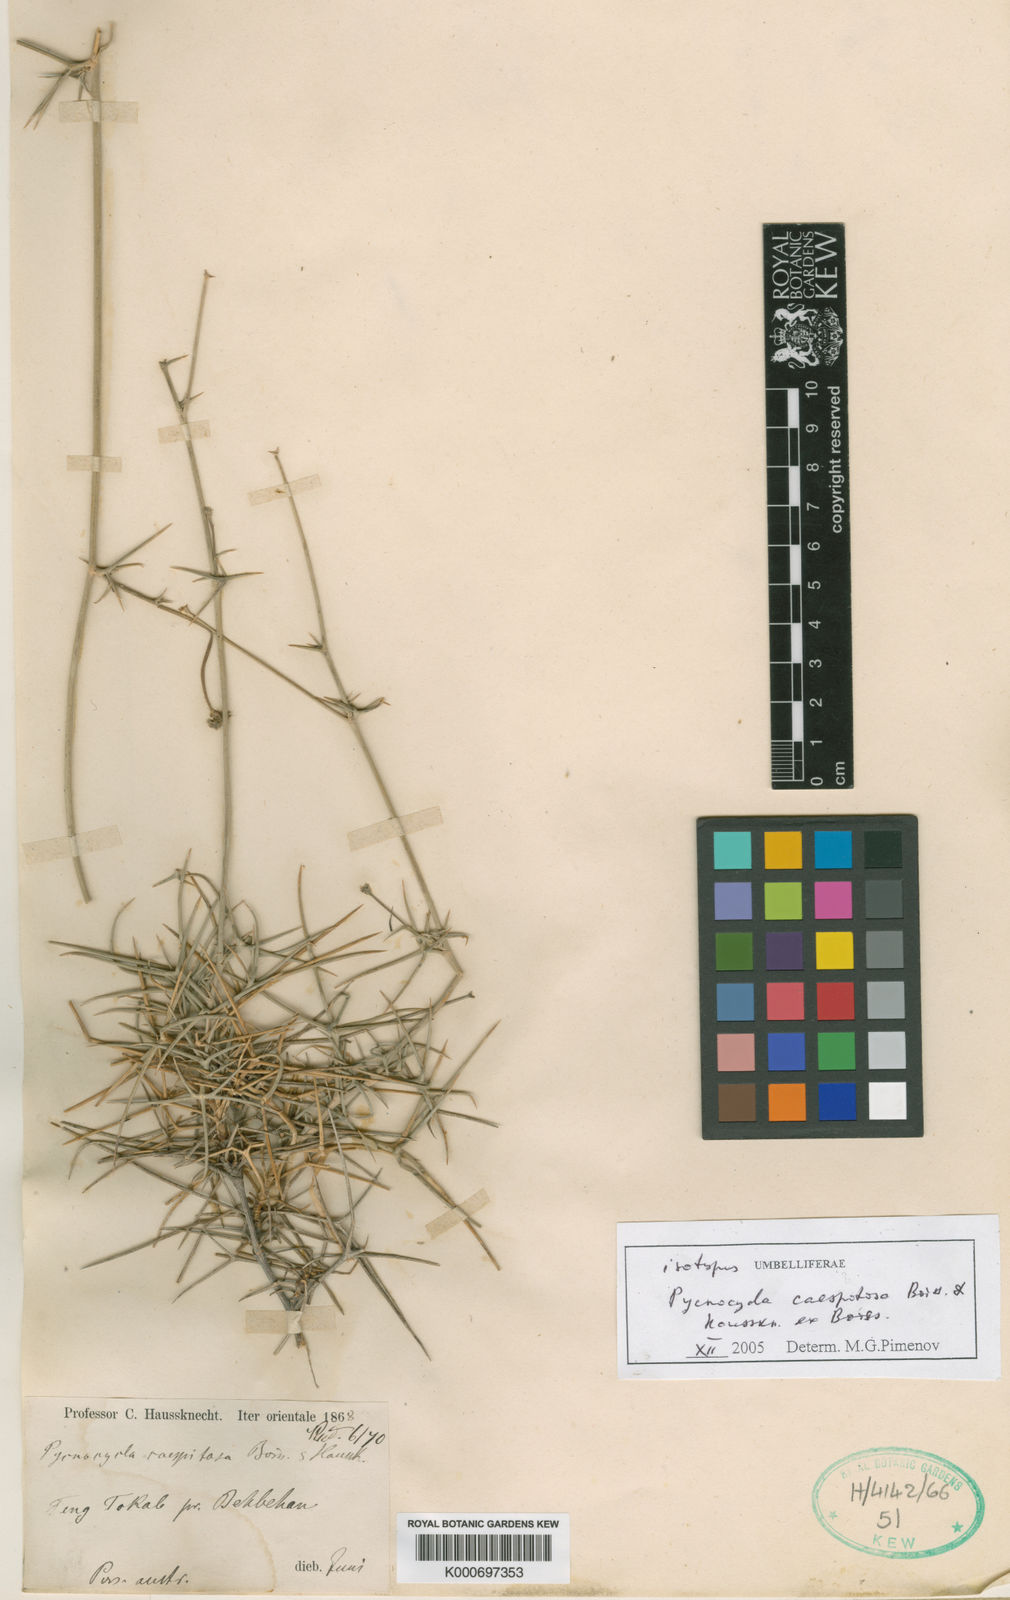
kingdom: Plantae
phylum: Tracheophyta
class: Magnoliopsida
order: Apiales
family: Apiaceae
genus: Pycnocycla
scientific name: Pycnocycla
